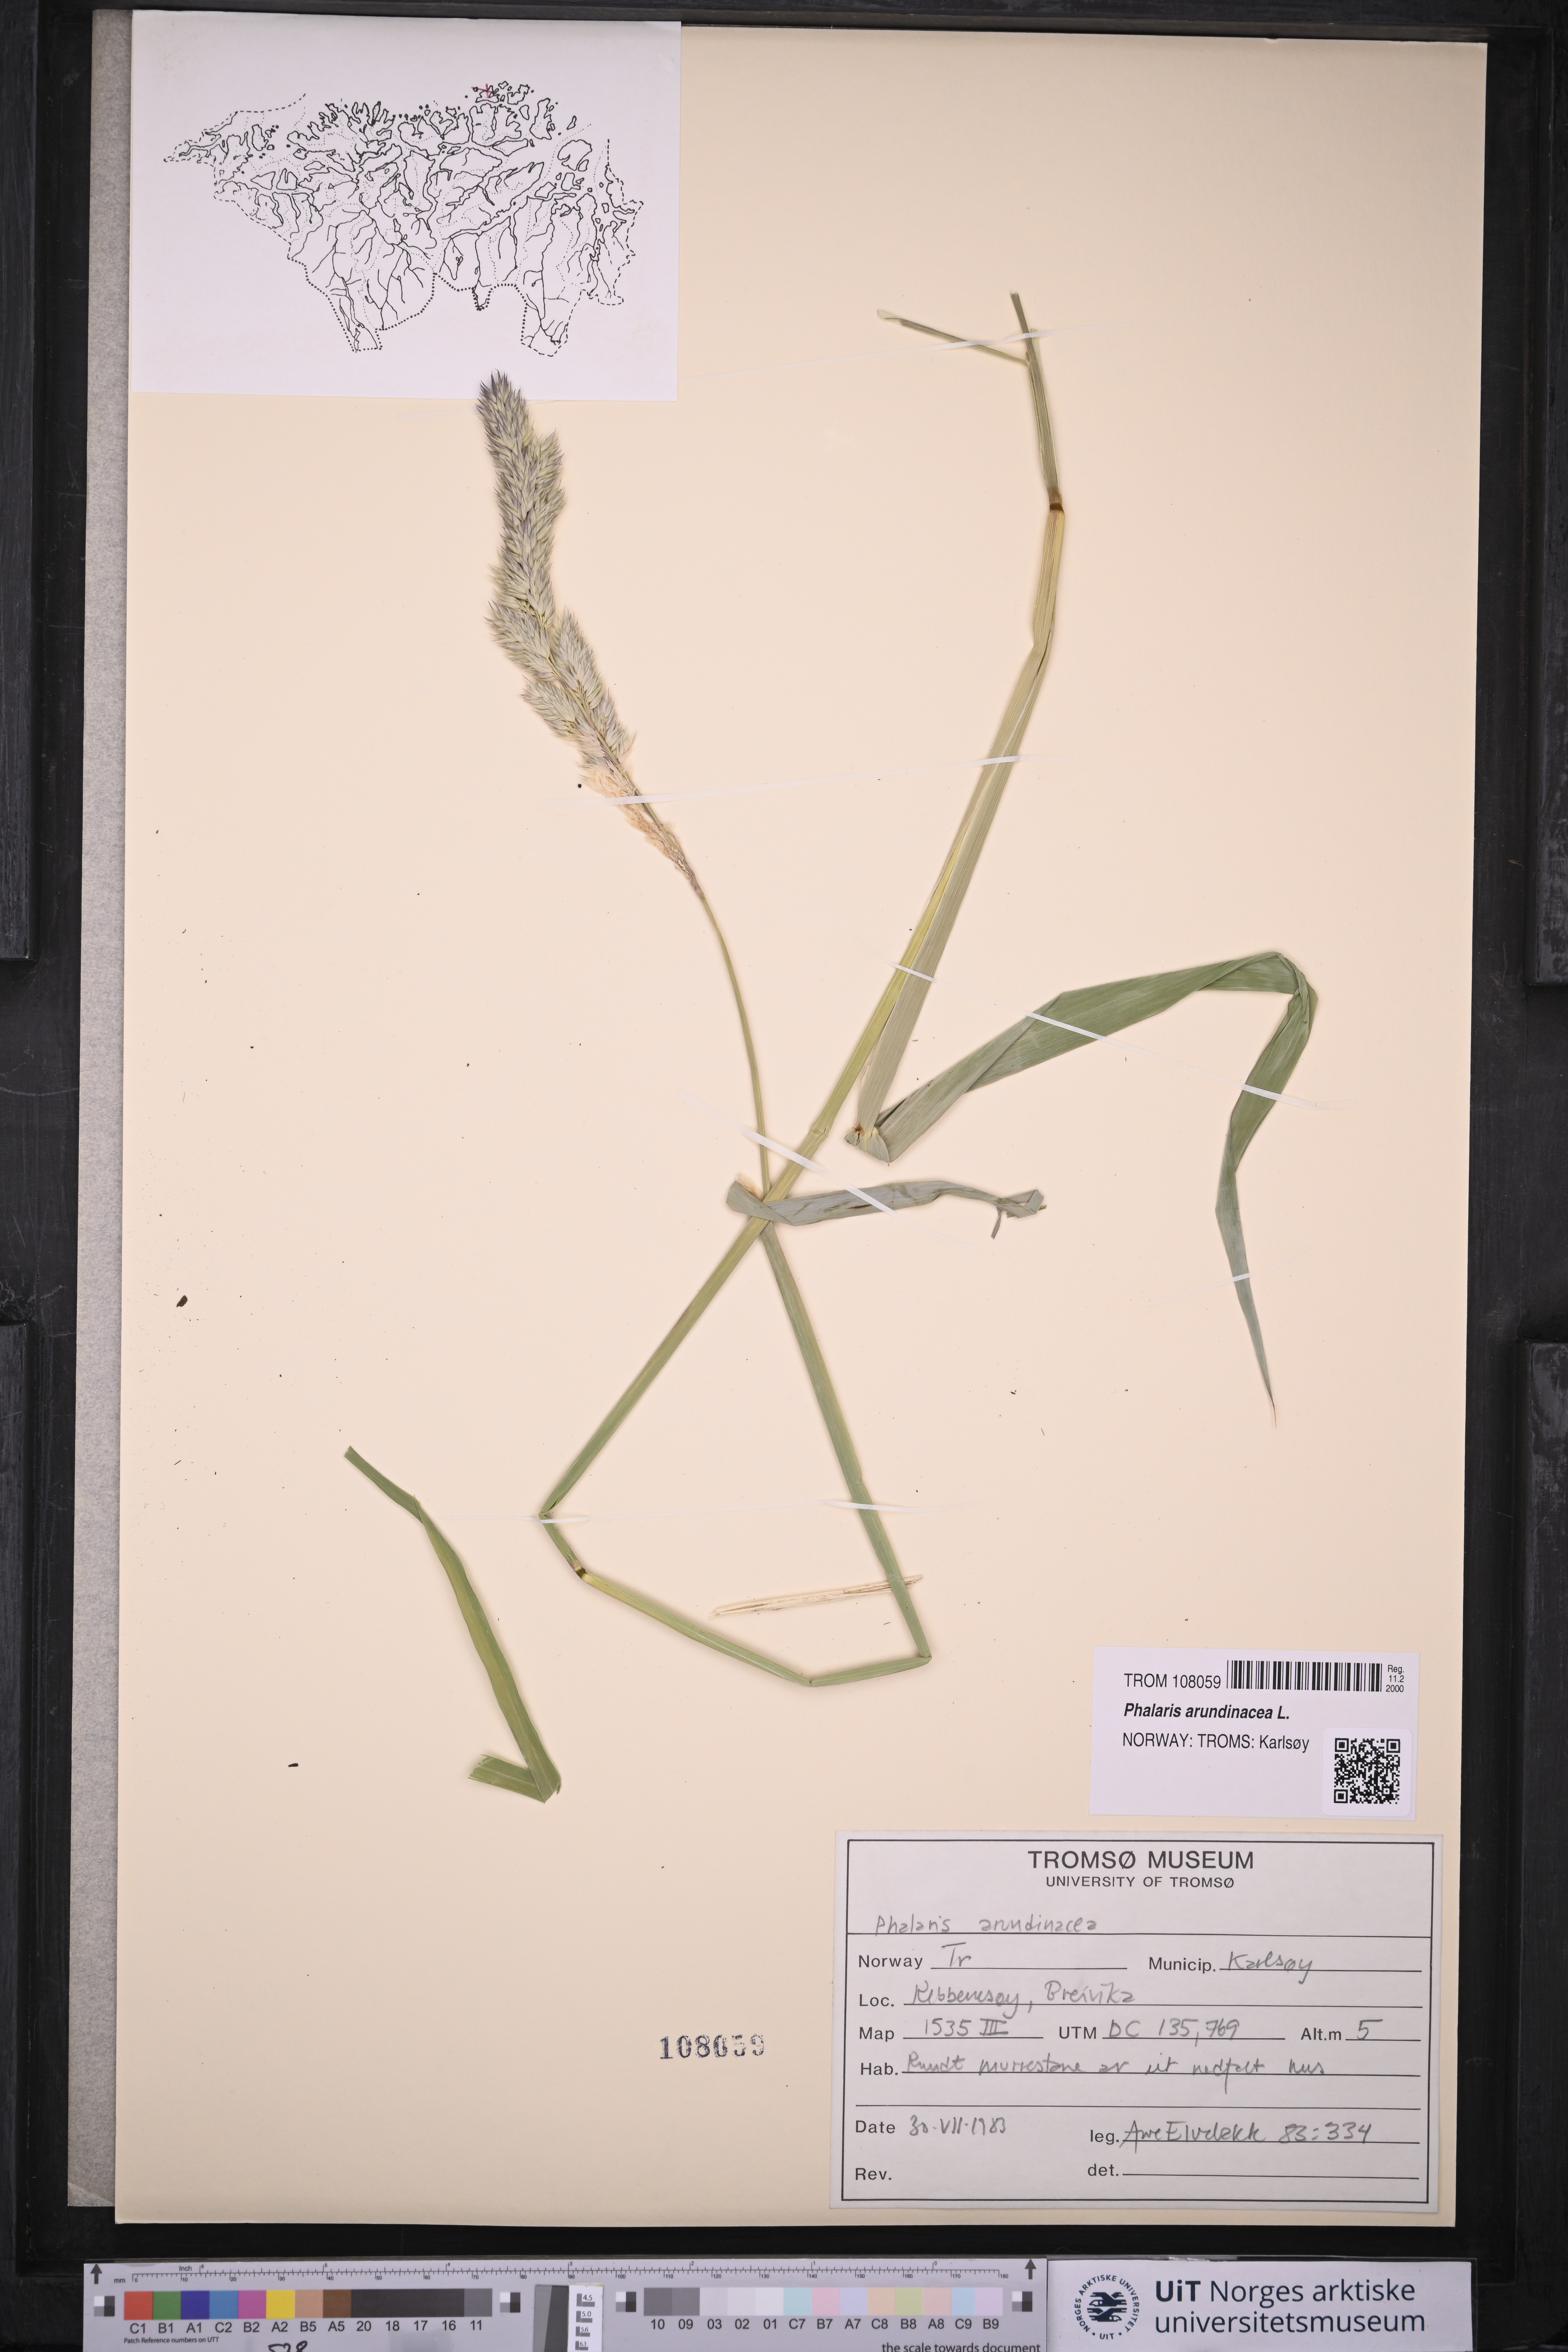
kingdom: Plantae
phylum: Tracheophyta
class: Liliopsida
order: Poales
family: Poaceae
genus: Phalaris
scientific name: Phalaris arundinacea
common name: Reed canary-grass
